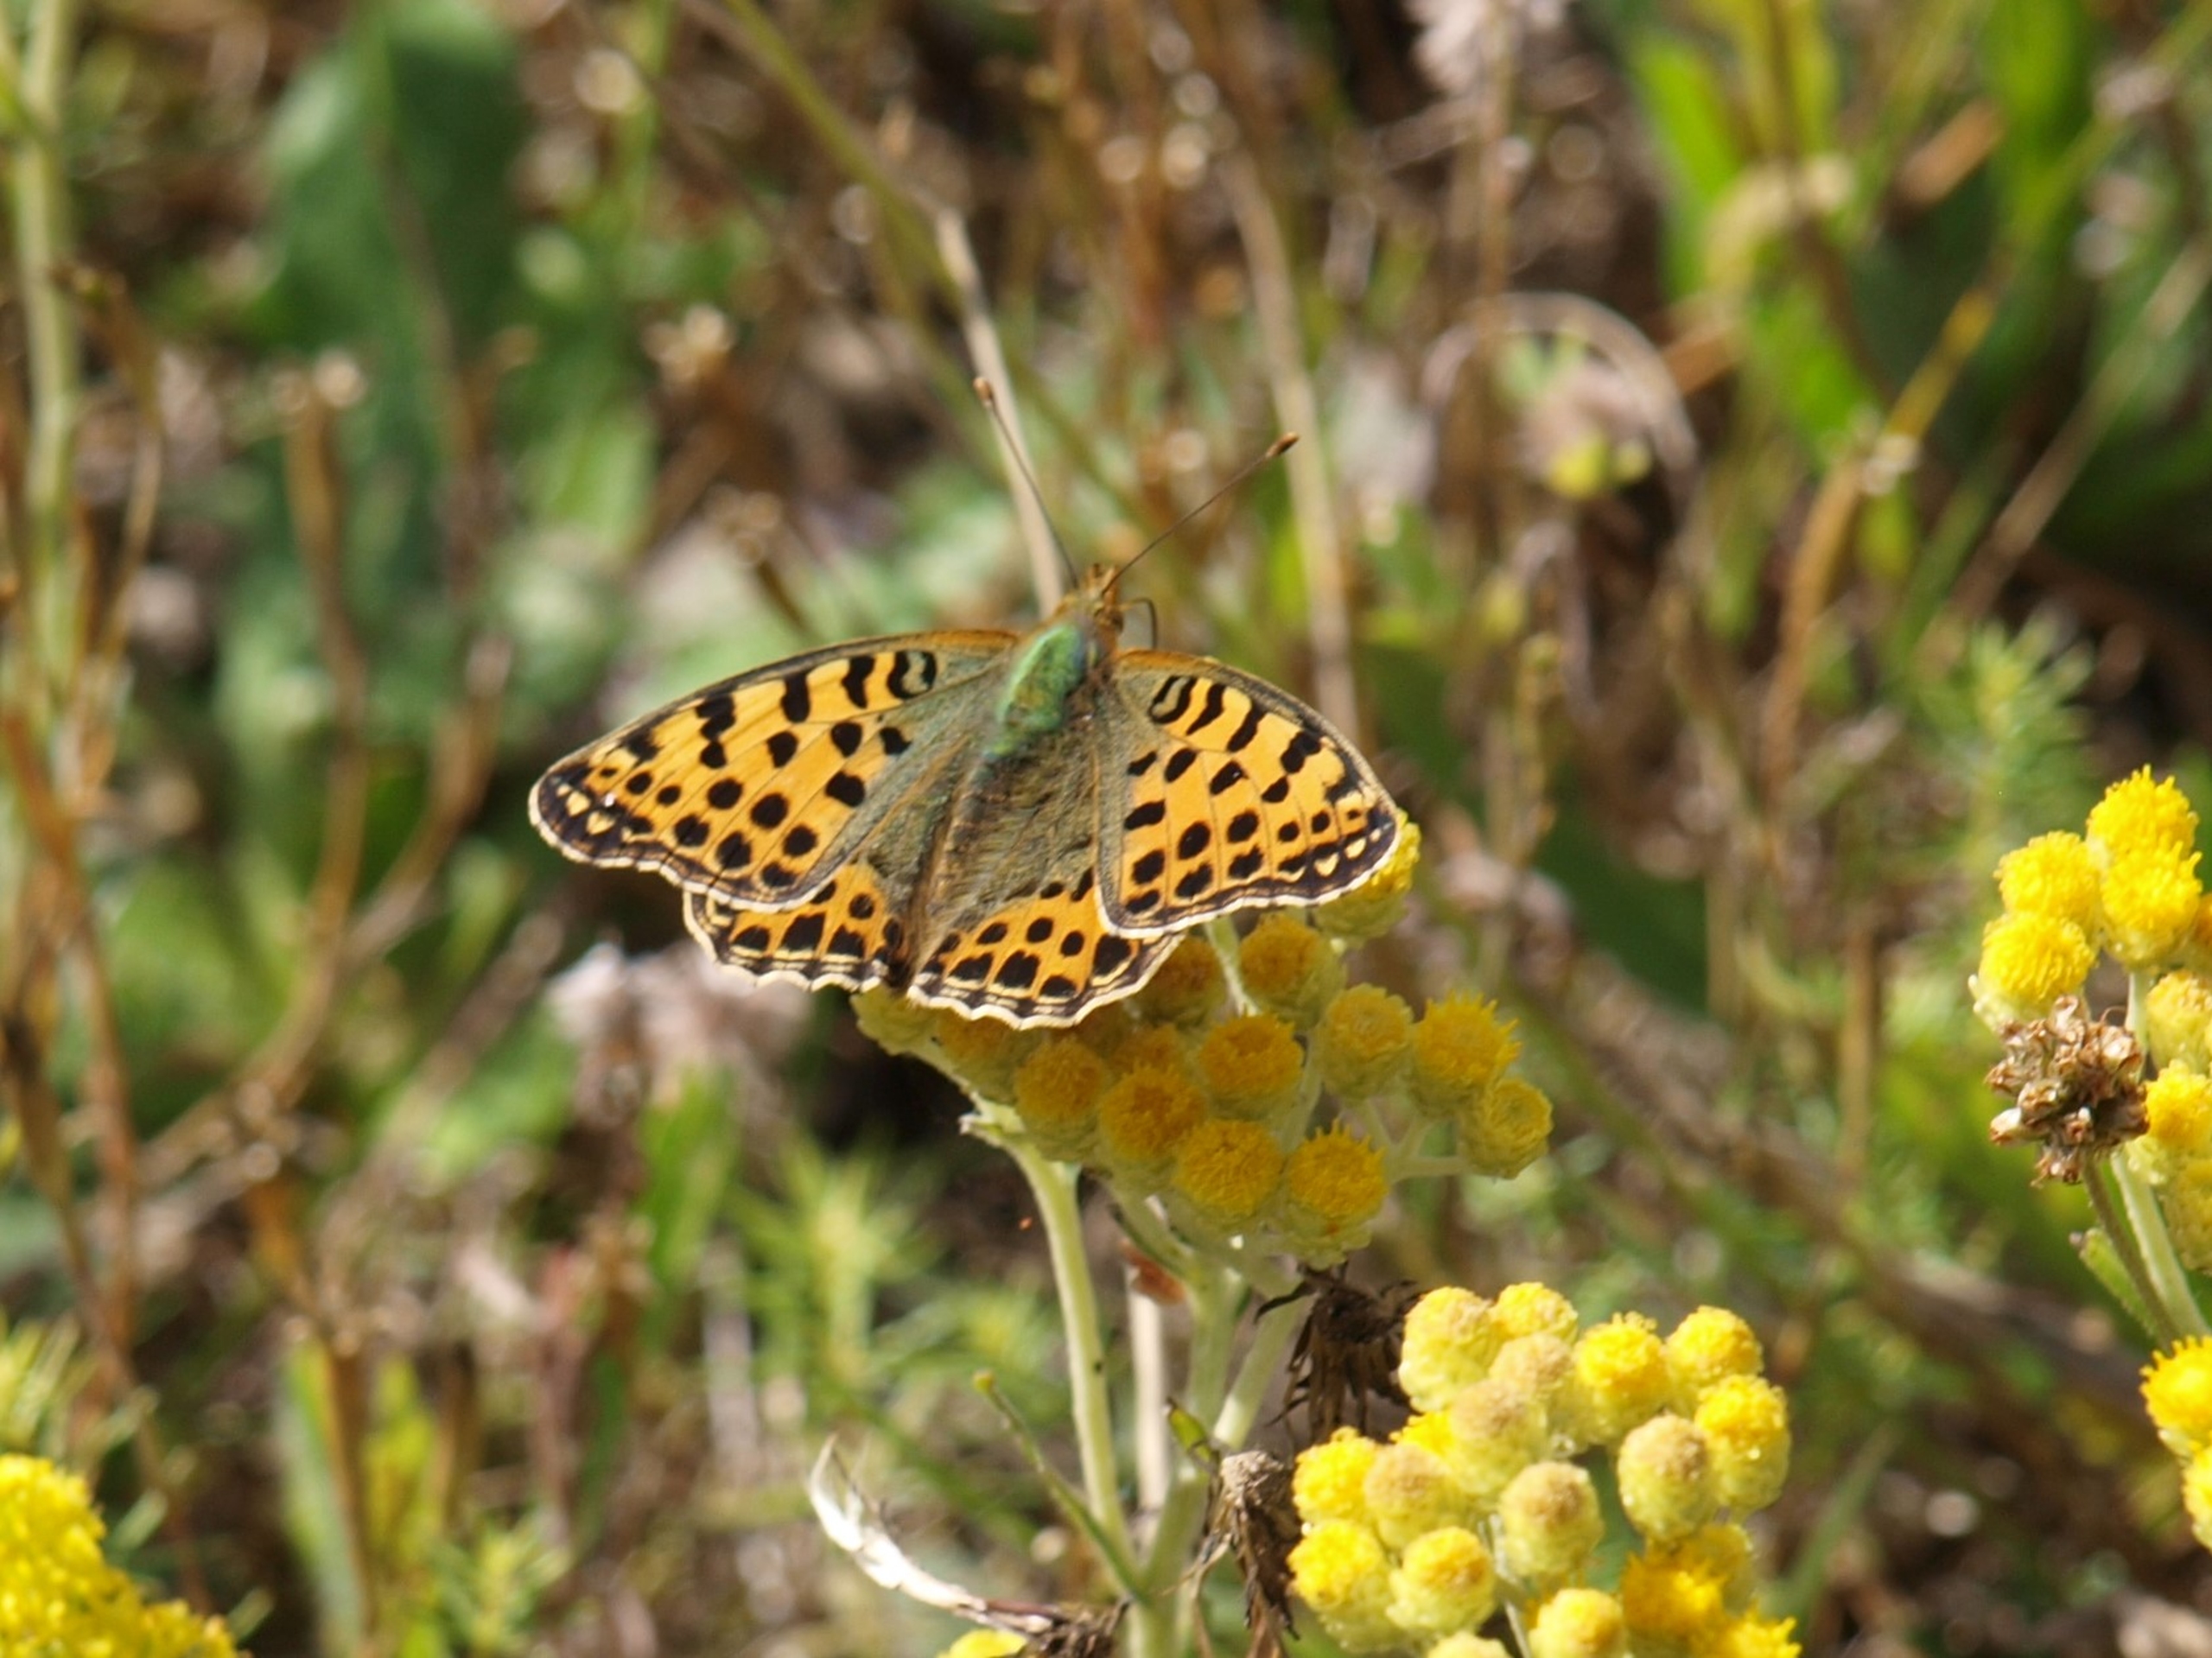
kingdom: Animalia
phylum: Arthropoda
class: Insecta
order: Lepidoptera
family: Nymphalidae
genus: Issoria
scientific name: Issoria lathonia
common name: Storplettet perlemorsommerfugl
